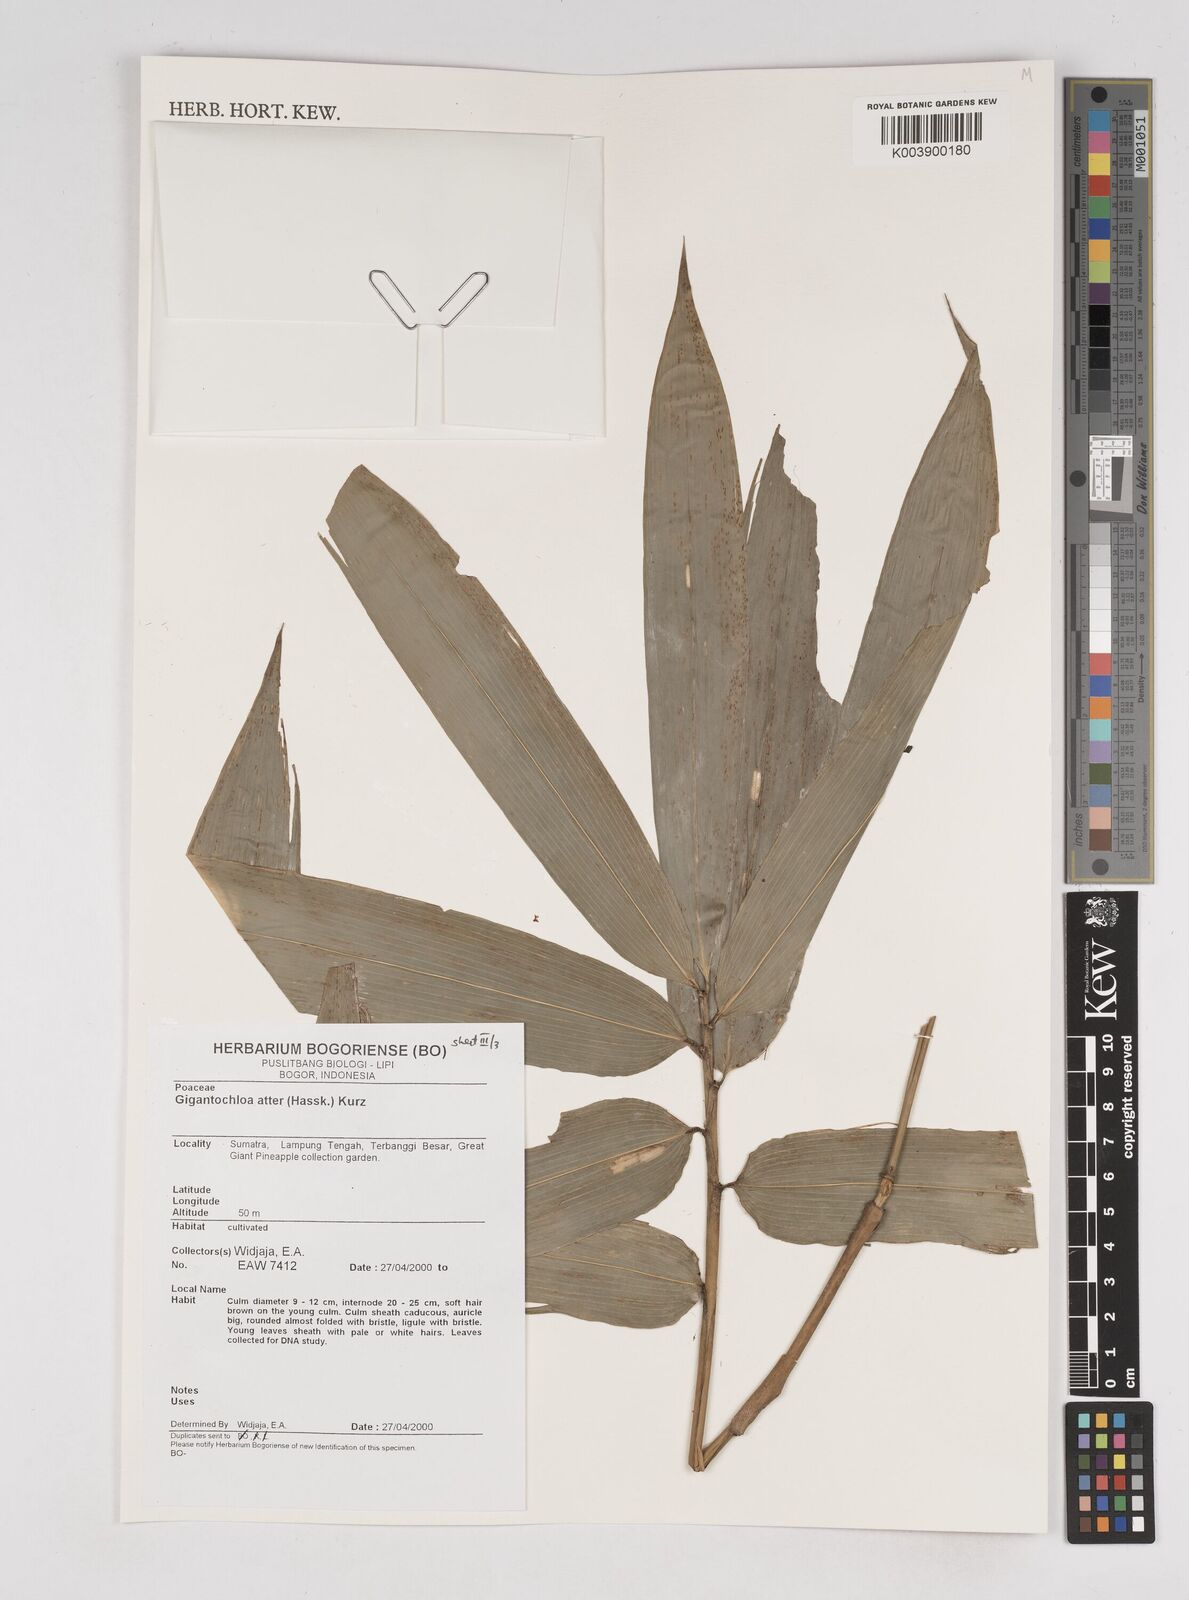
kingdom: Plantae
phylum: Tracheophyta
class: Liliopsida
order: Poales
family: Poaceae
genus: Gigantochloa
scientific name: Gigantochloa atter
